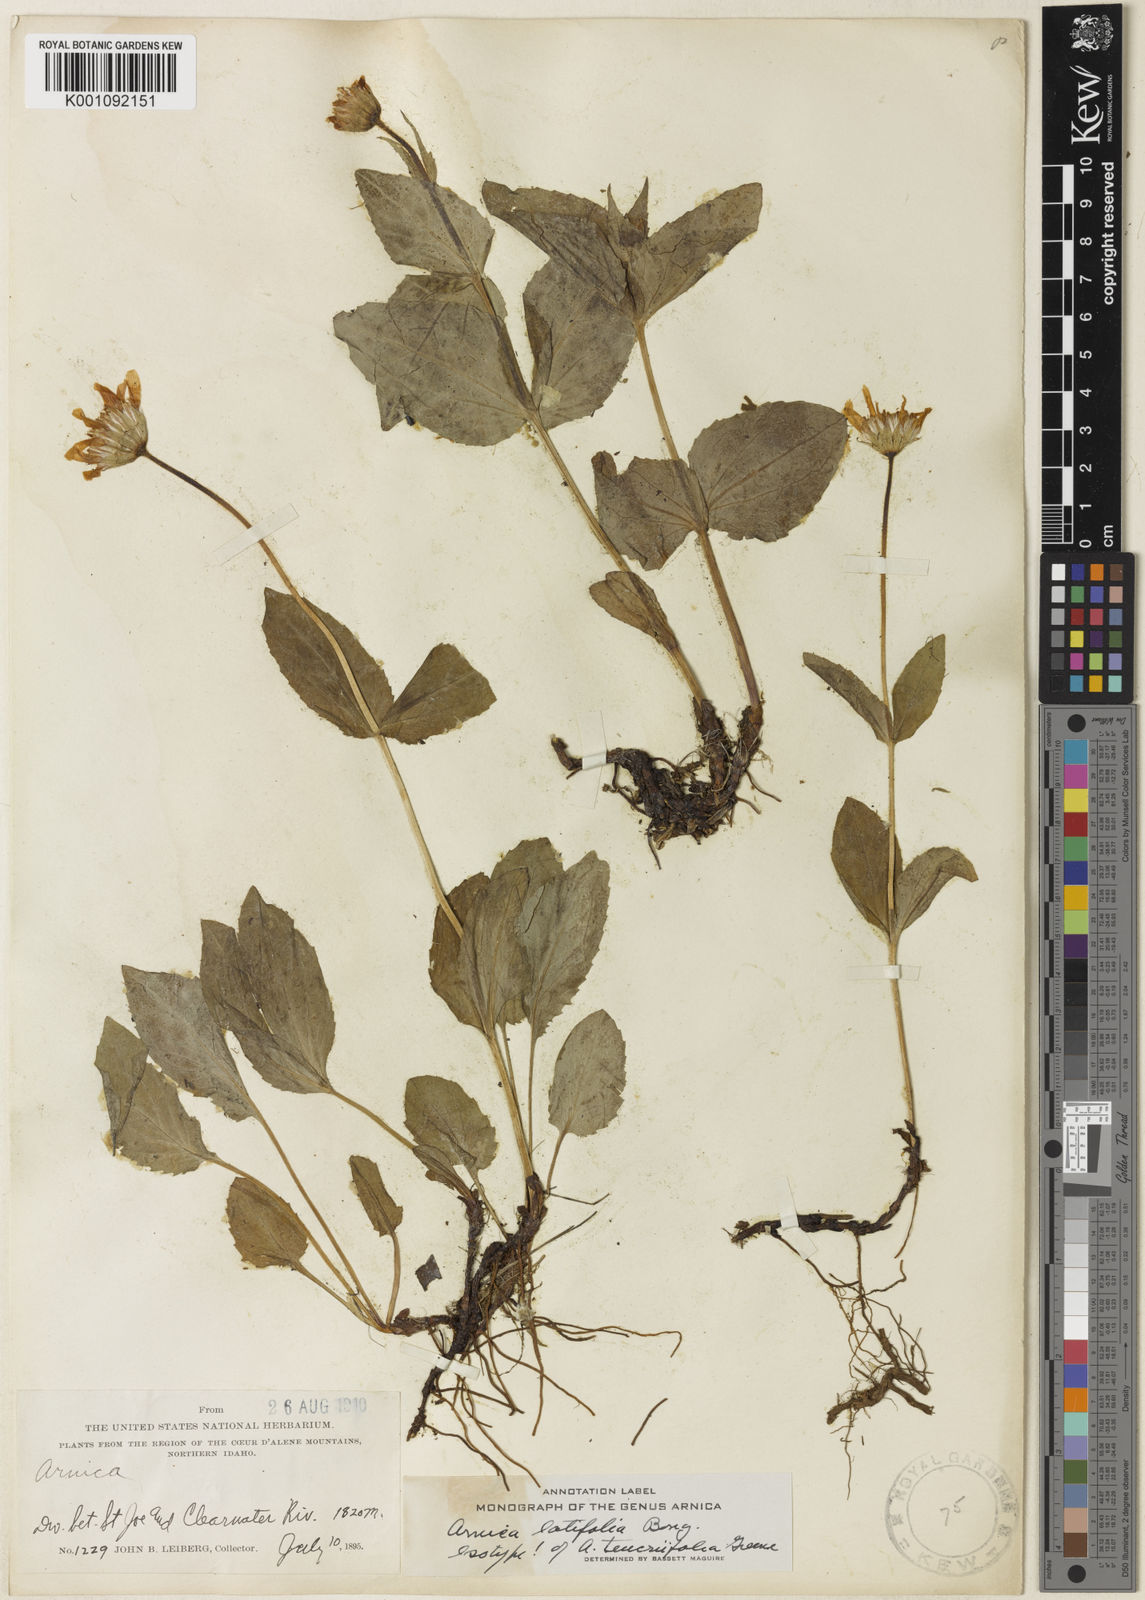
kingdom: Plantae
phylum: Tracheophyta
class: Magnoliopsida
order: Asterales
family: Asteraceae
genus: Arnica
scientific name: Arnica latifolia
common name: Arnica
